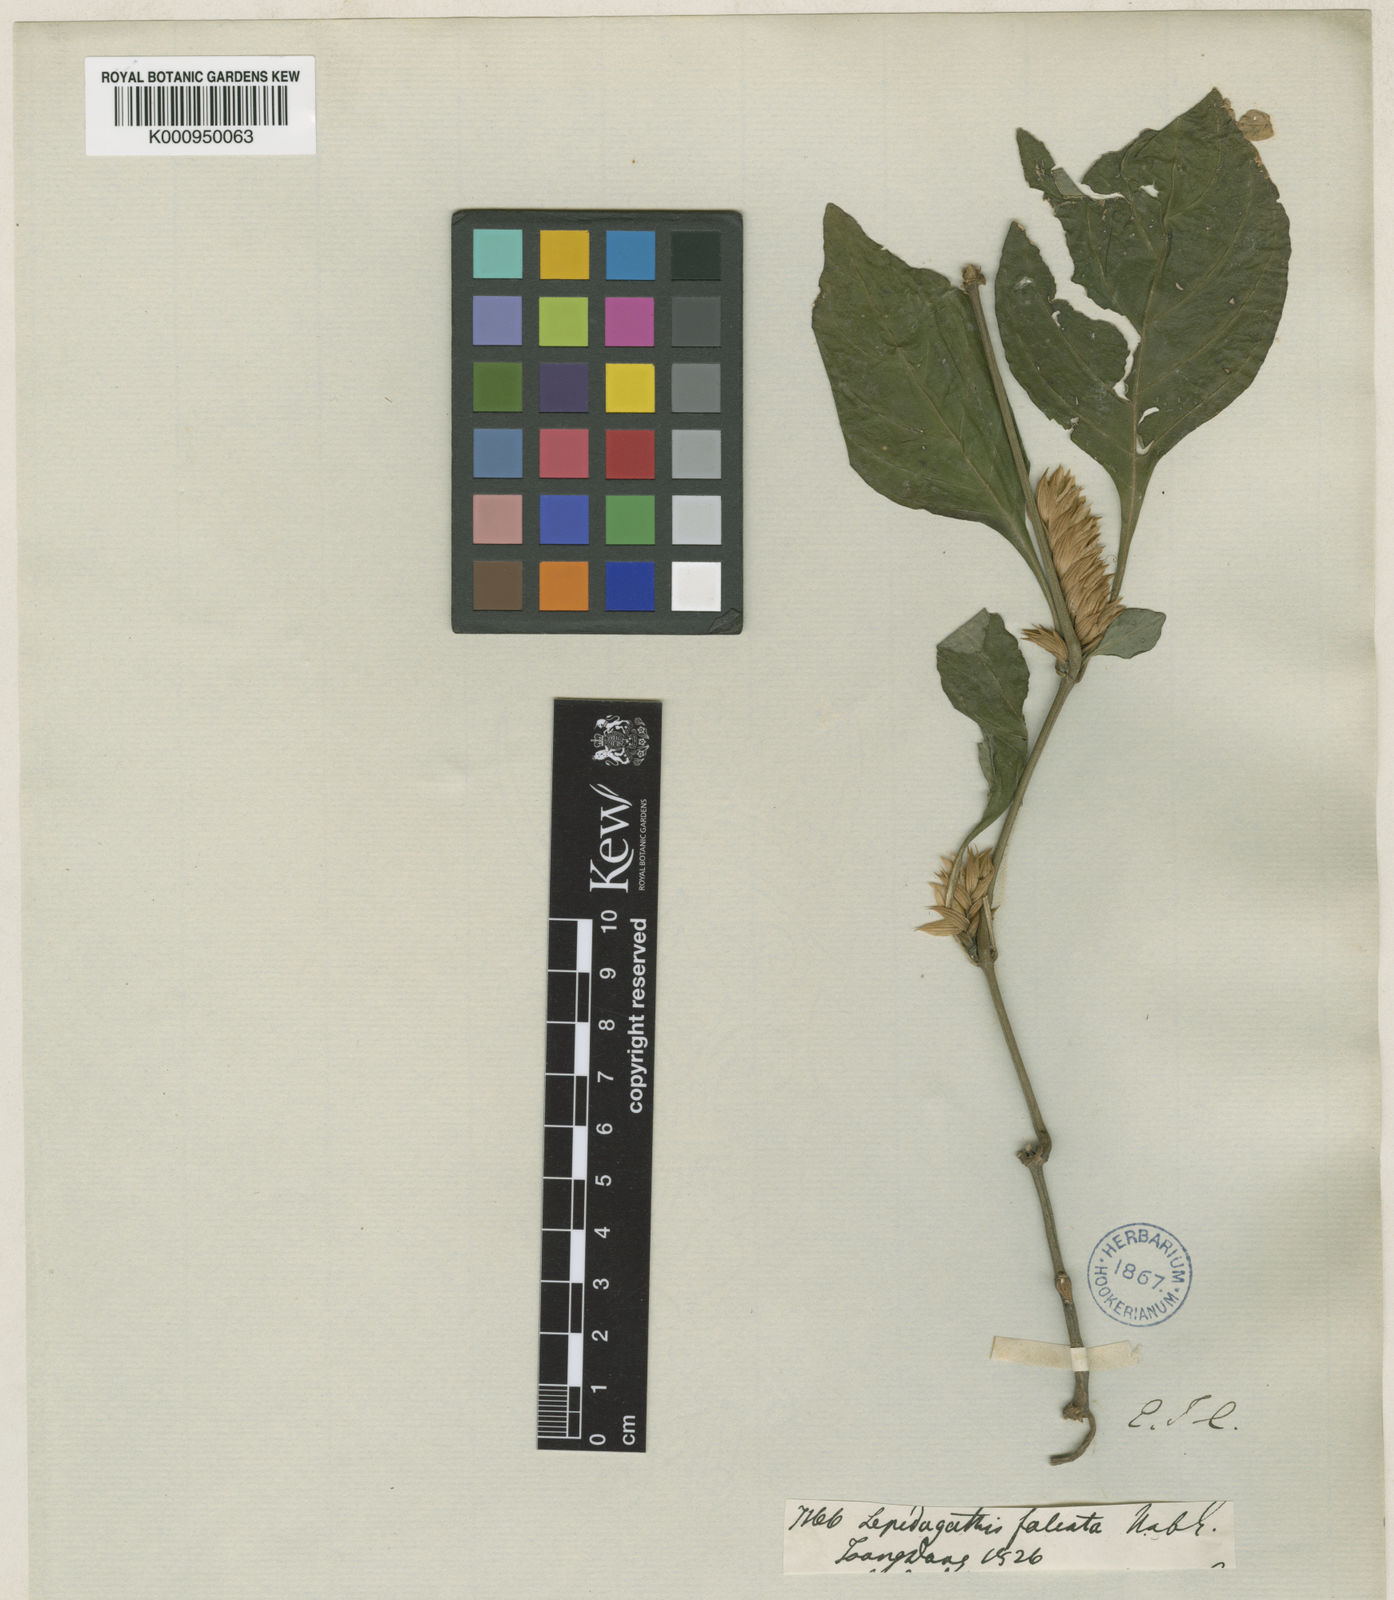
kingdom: Plantae
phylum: Tracheophyta
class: Magnoliopsida
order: Lamiales
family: Acanthaceae
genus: Lepidagathis
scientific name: Lepidagathis falcata
